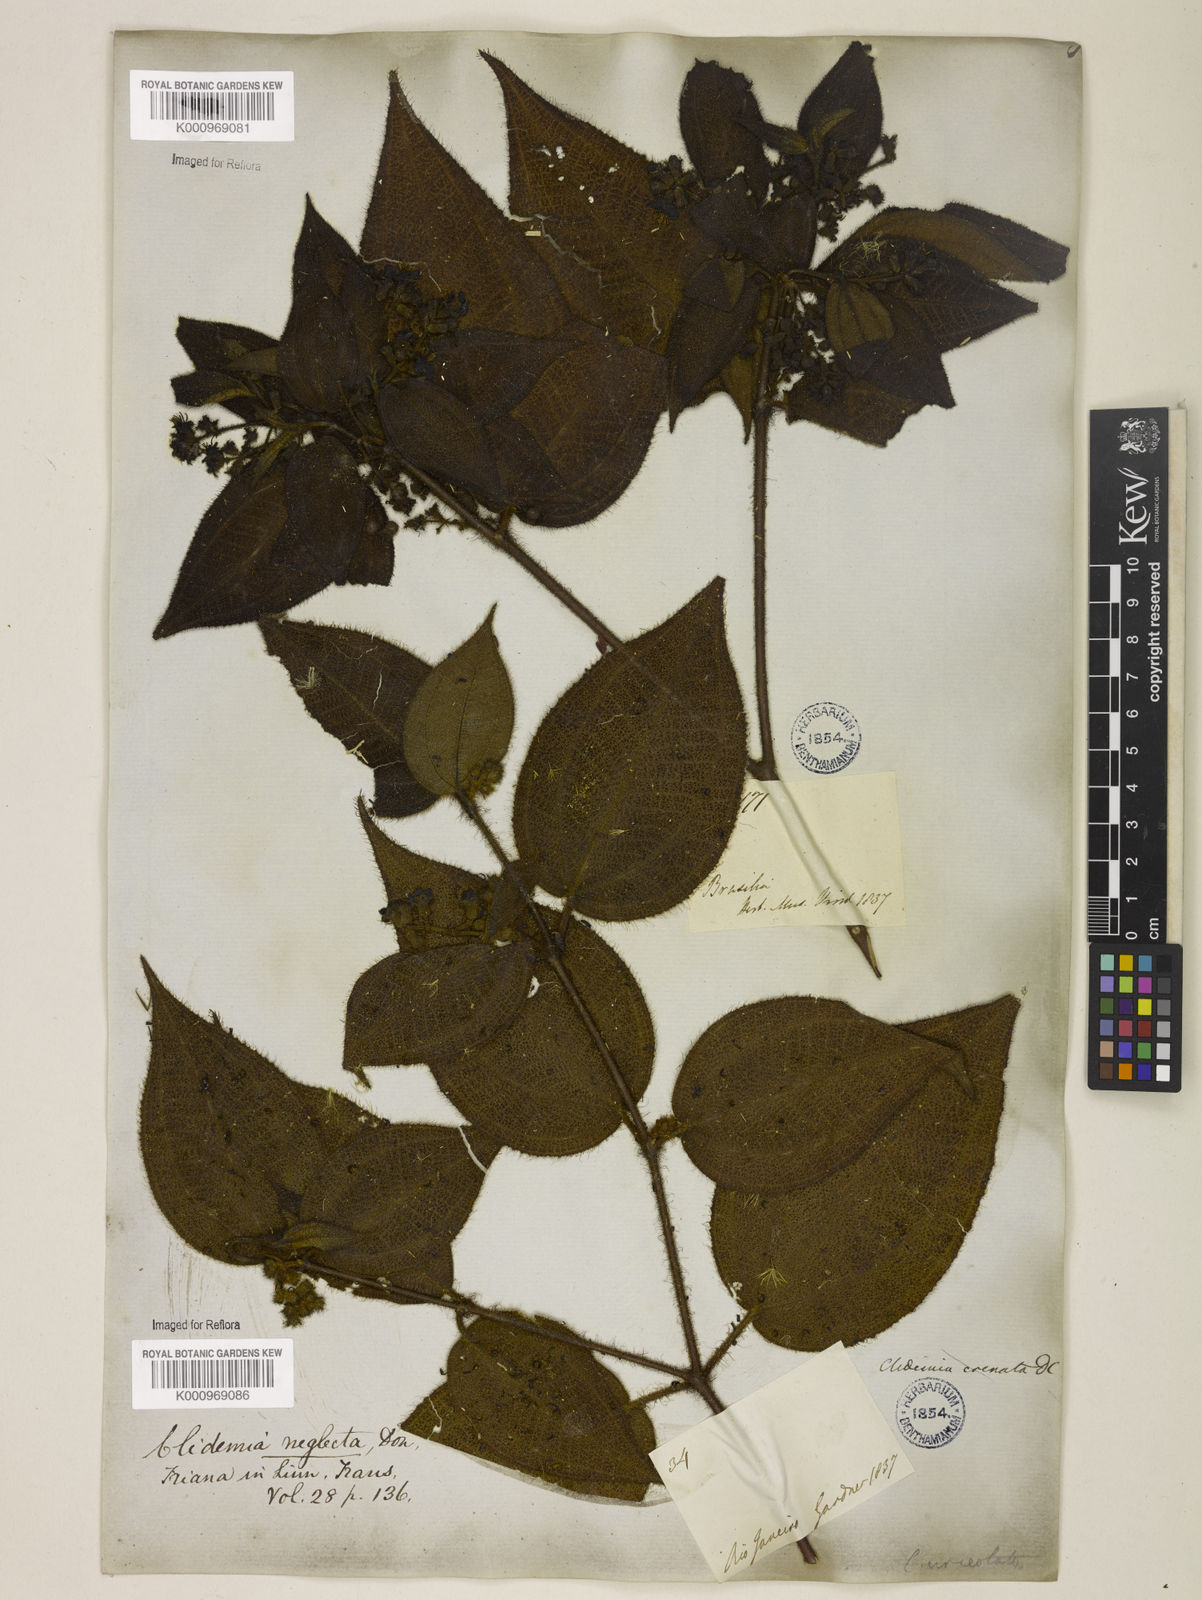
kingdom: Plantae
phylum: Tracheophyta
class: Magnoliopsida
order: Myrtales
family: Melastomataceae
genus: Miconia
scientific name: Miconia dependens
